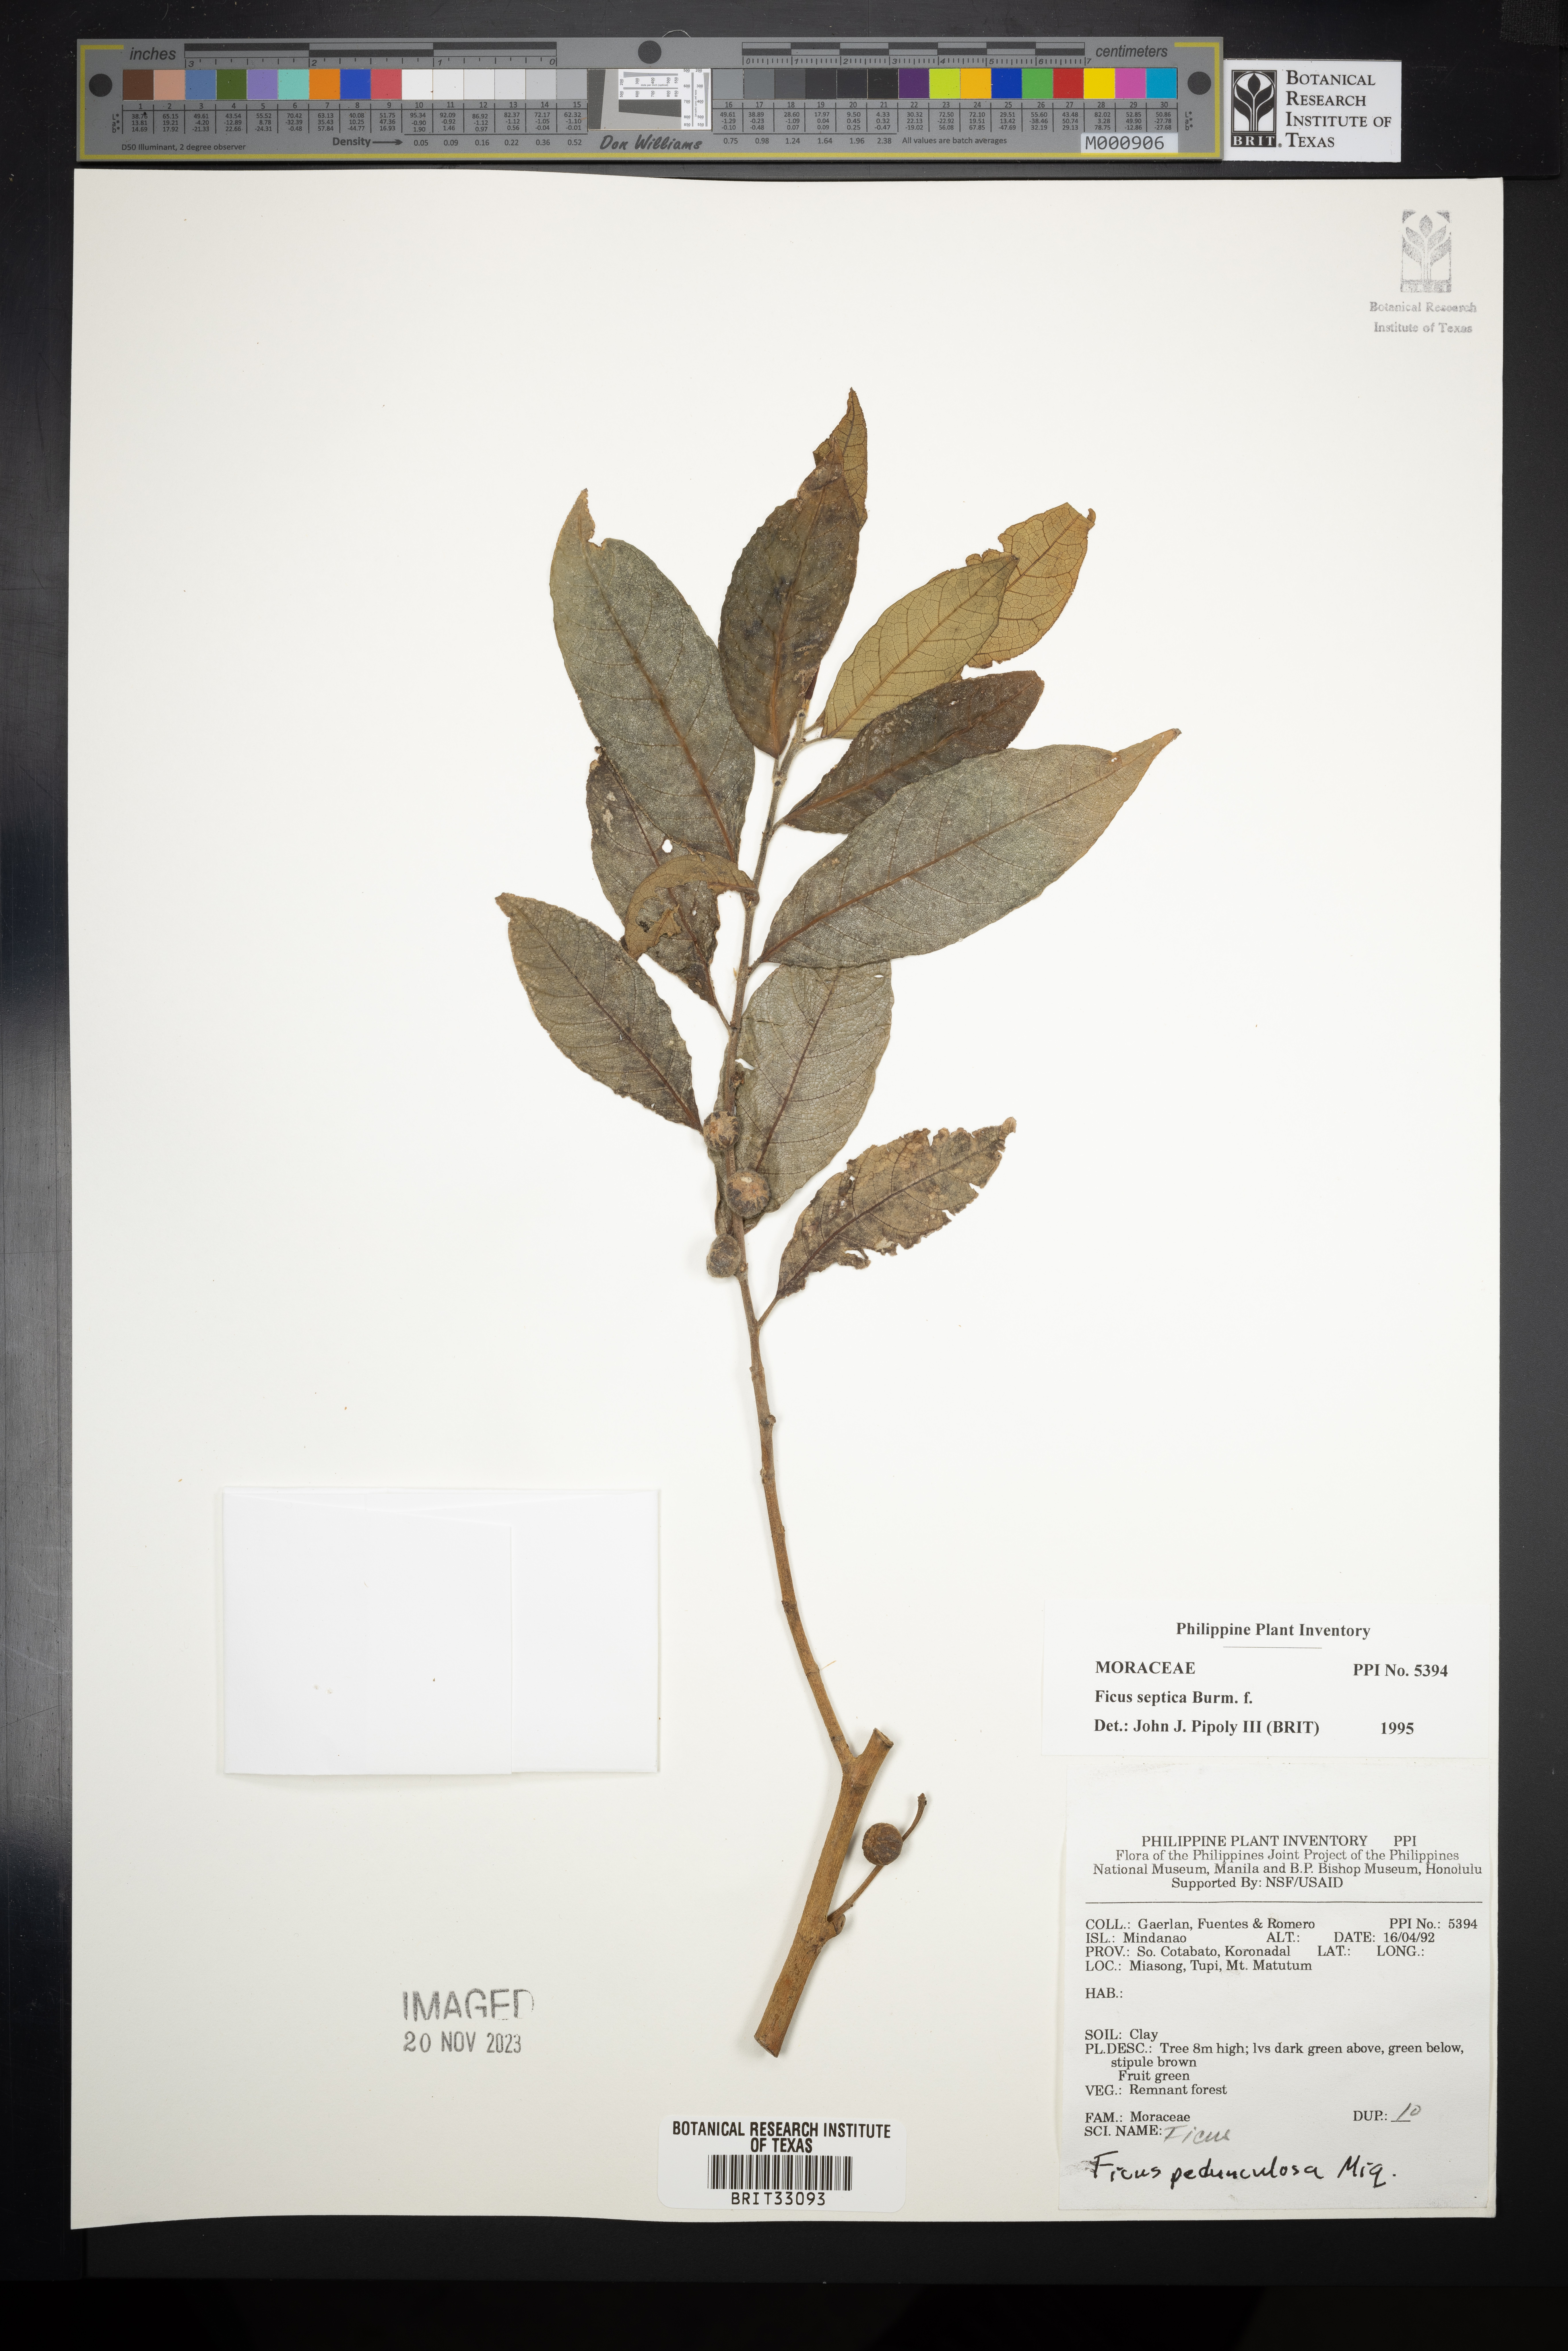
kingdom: Plantae
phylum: Tracheophyta
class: Magnoliopsida
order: Rosales
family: Moraceae
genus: Ficus
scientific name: Ficus septica
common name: Septic fig
